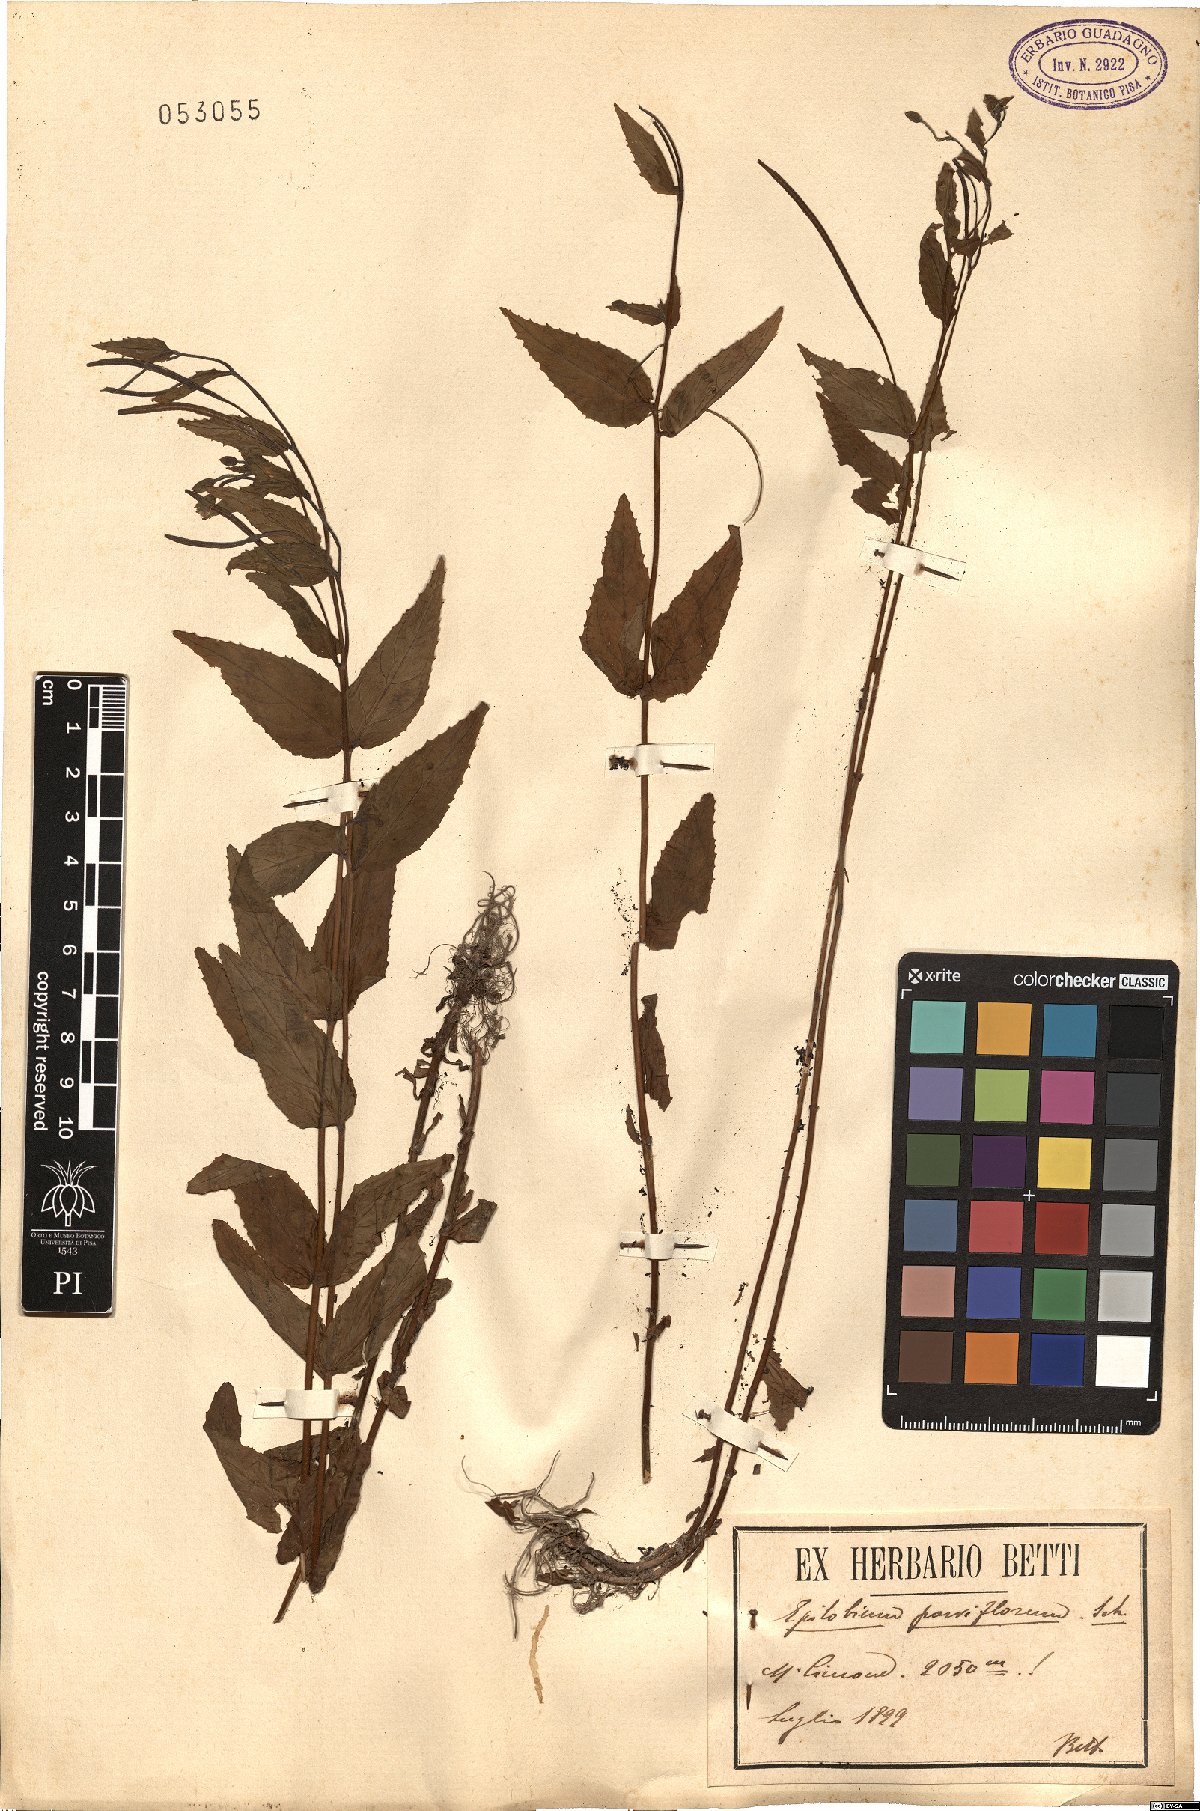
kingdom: Plantae
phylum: Tracheophyta
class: Magnoliopsida
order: Myrtales
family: Onagraceae
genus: Epilobium
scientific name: Epilobium parviflorum
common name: Hoary willowherb
